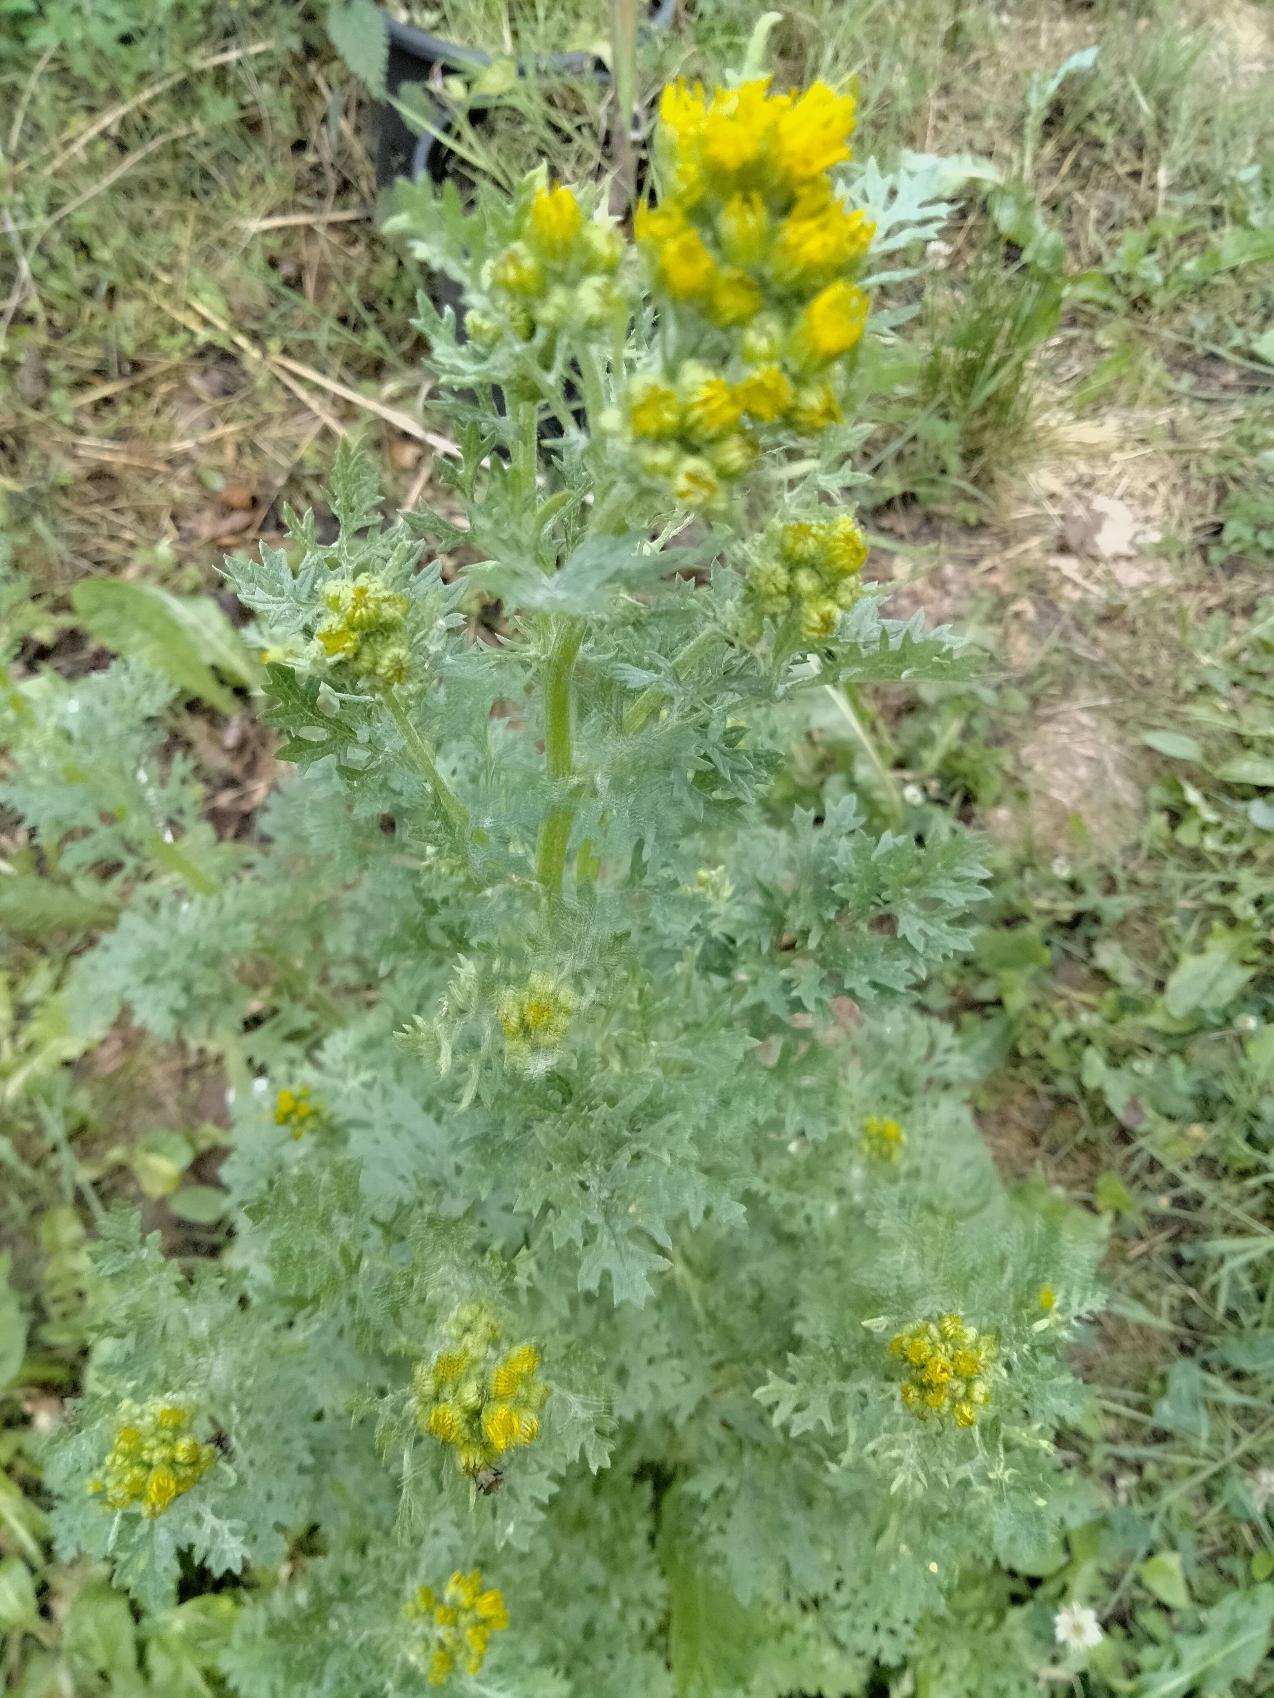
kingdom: Plantae
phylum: Tracheophyta
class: Magnoliopsida
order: Asterales
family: Asteraceae
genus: Jacobaea
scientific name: Jacobaea vulgaris
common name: Eng-brandbæger
